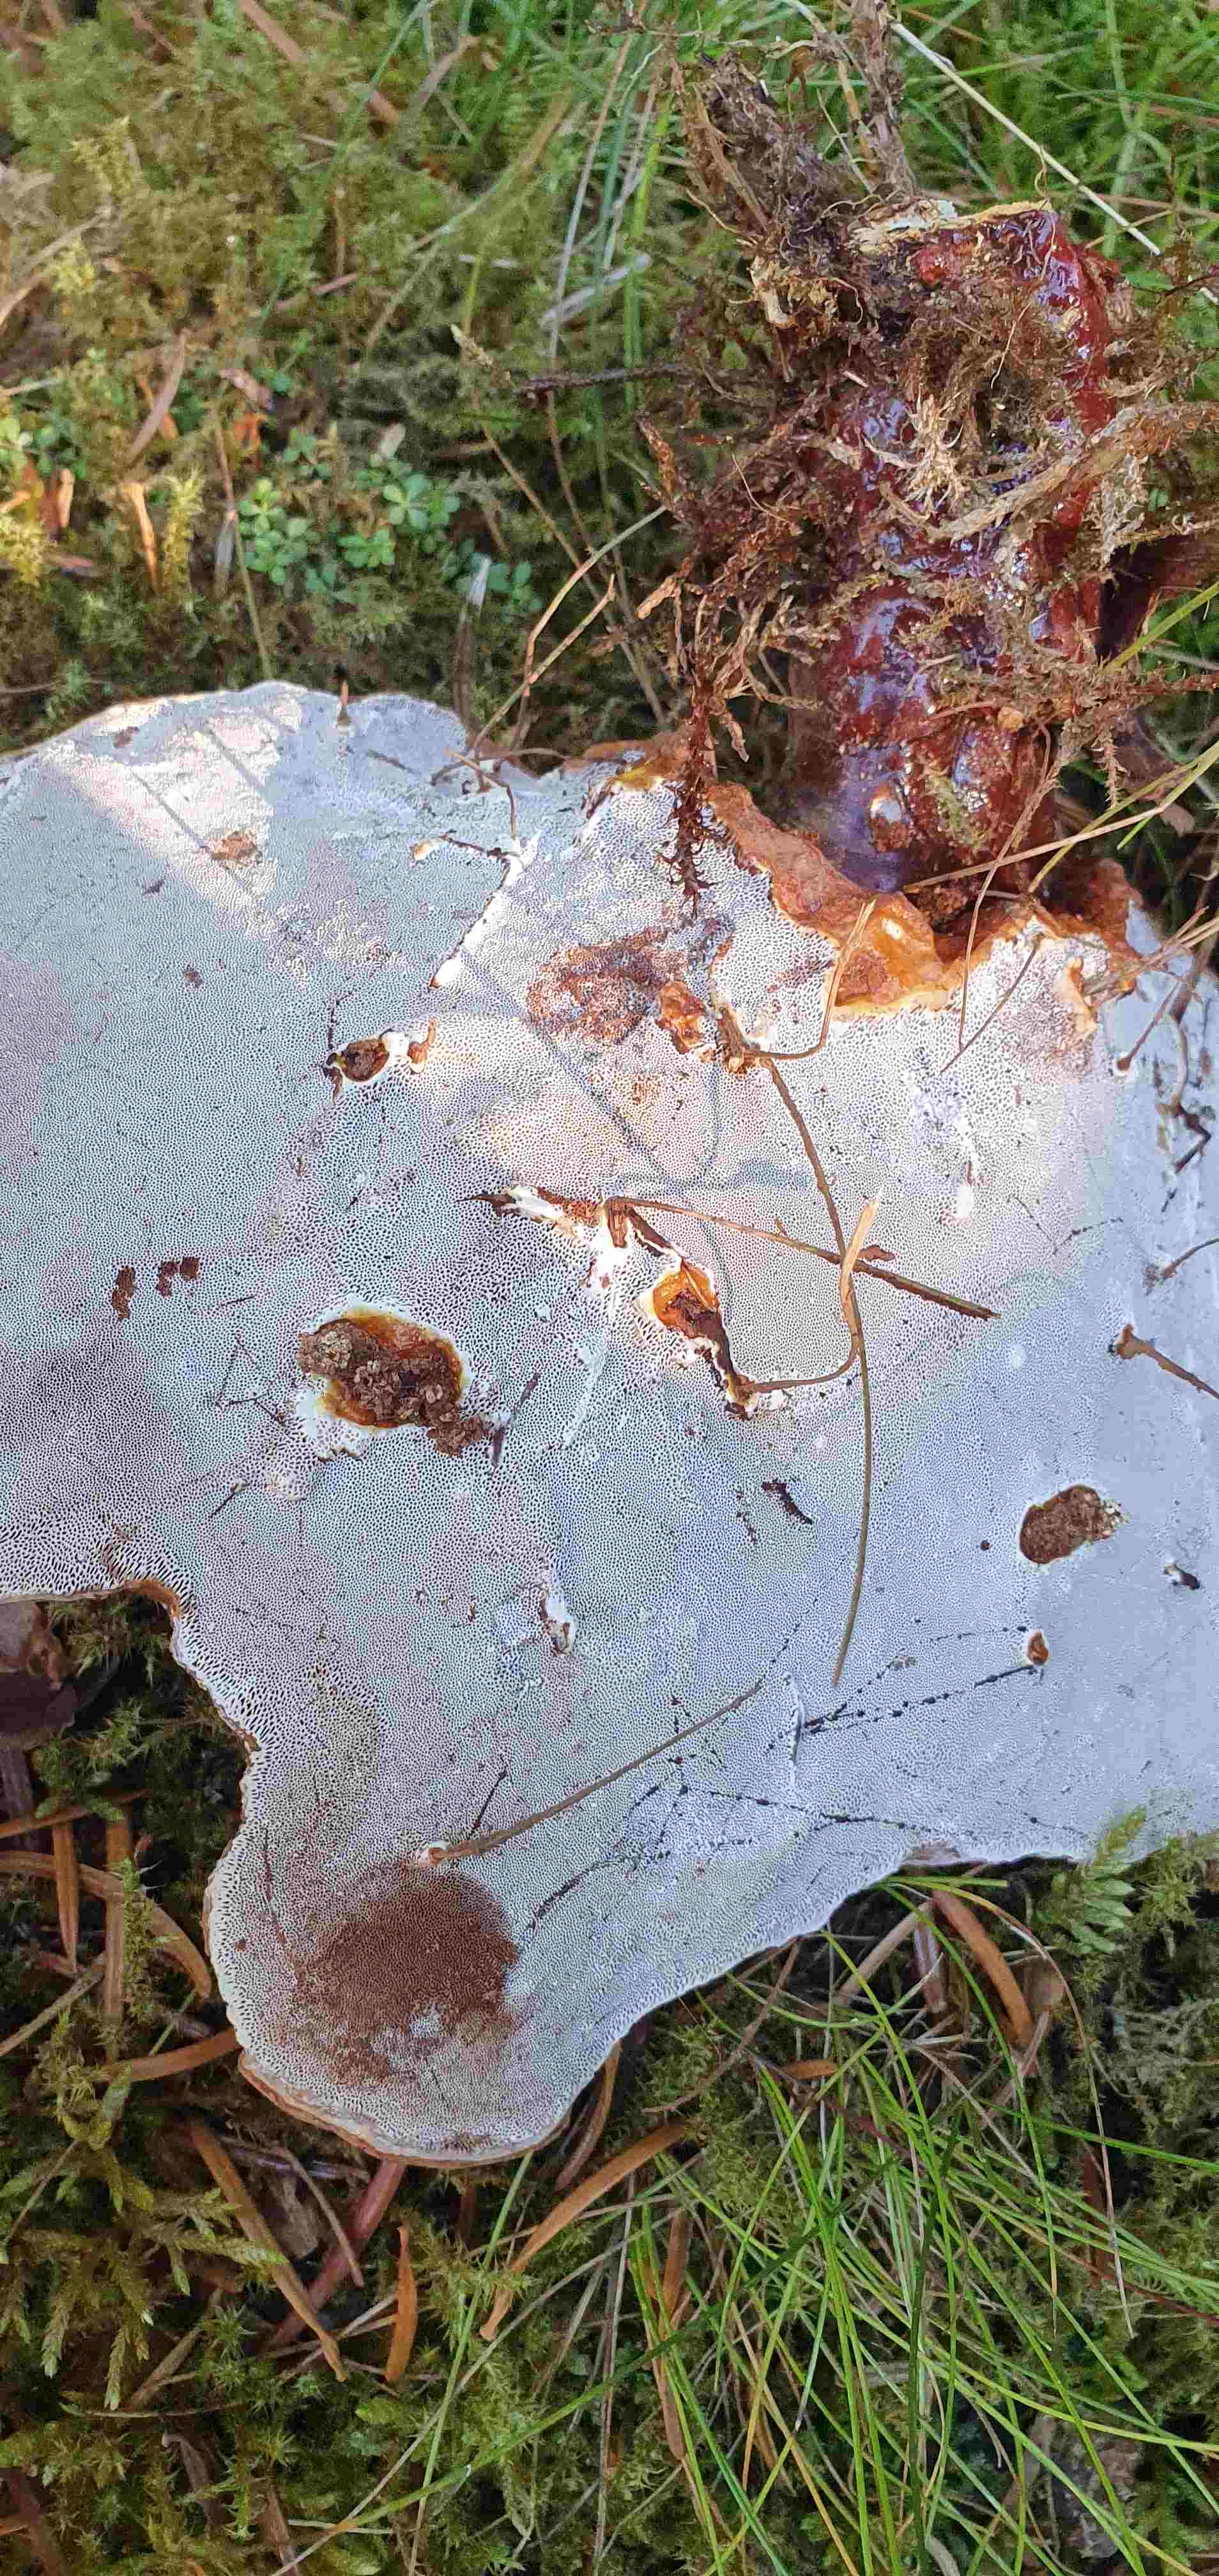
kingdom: Fungi
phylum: Basidiomycota
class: Agaricomycetes
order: Polyporales
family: Polyporaceae
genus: Ganoderma
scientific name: Ganoderma lucidum
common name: skinnende lakporesvamp
